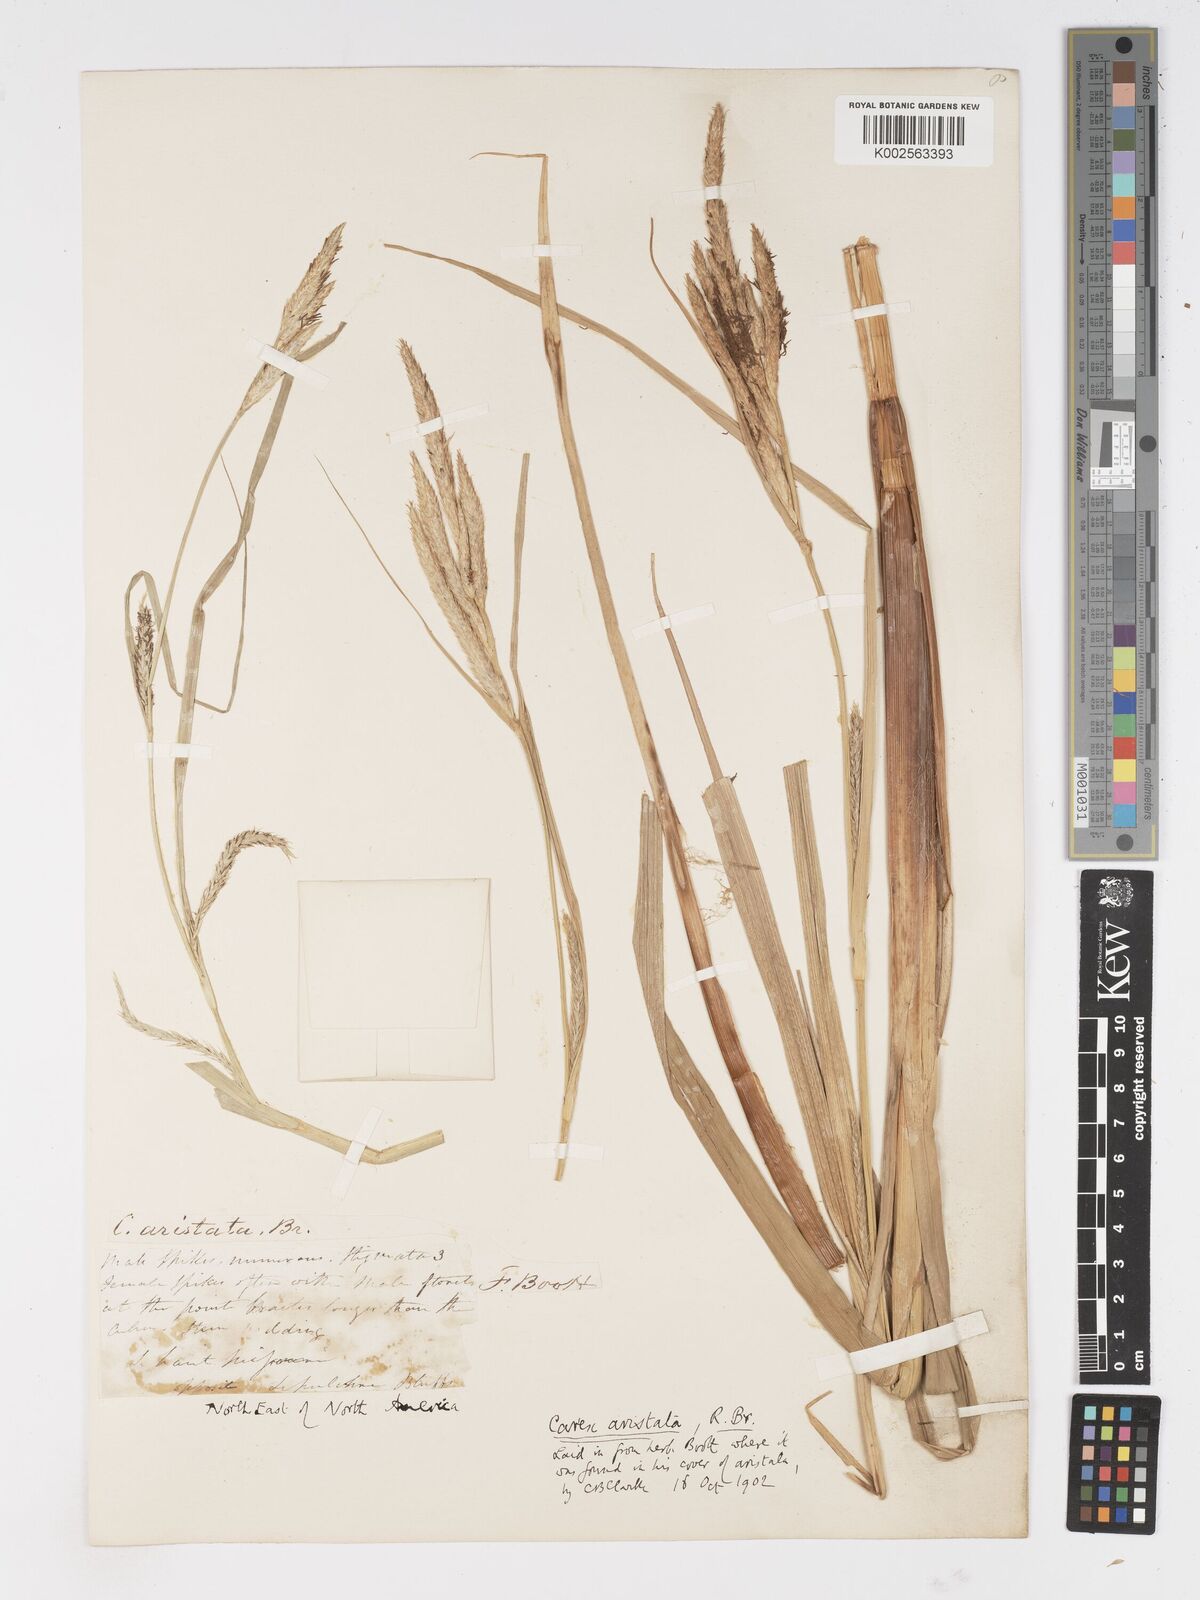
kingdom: Plantae
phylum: Tracheophyta
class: Liliopsida
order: Poales
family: Cyperaceae
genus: Carex
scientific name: Carex atherodes
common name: Wheat sedge
